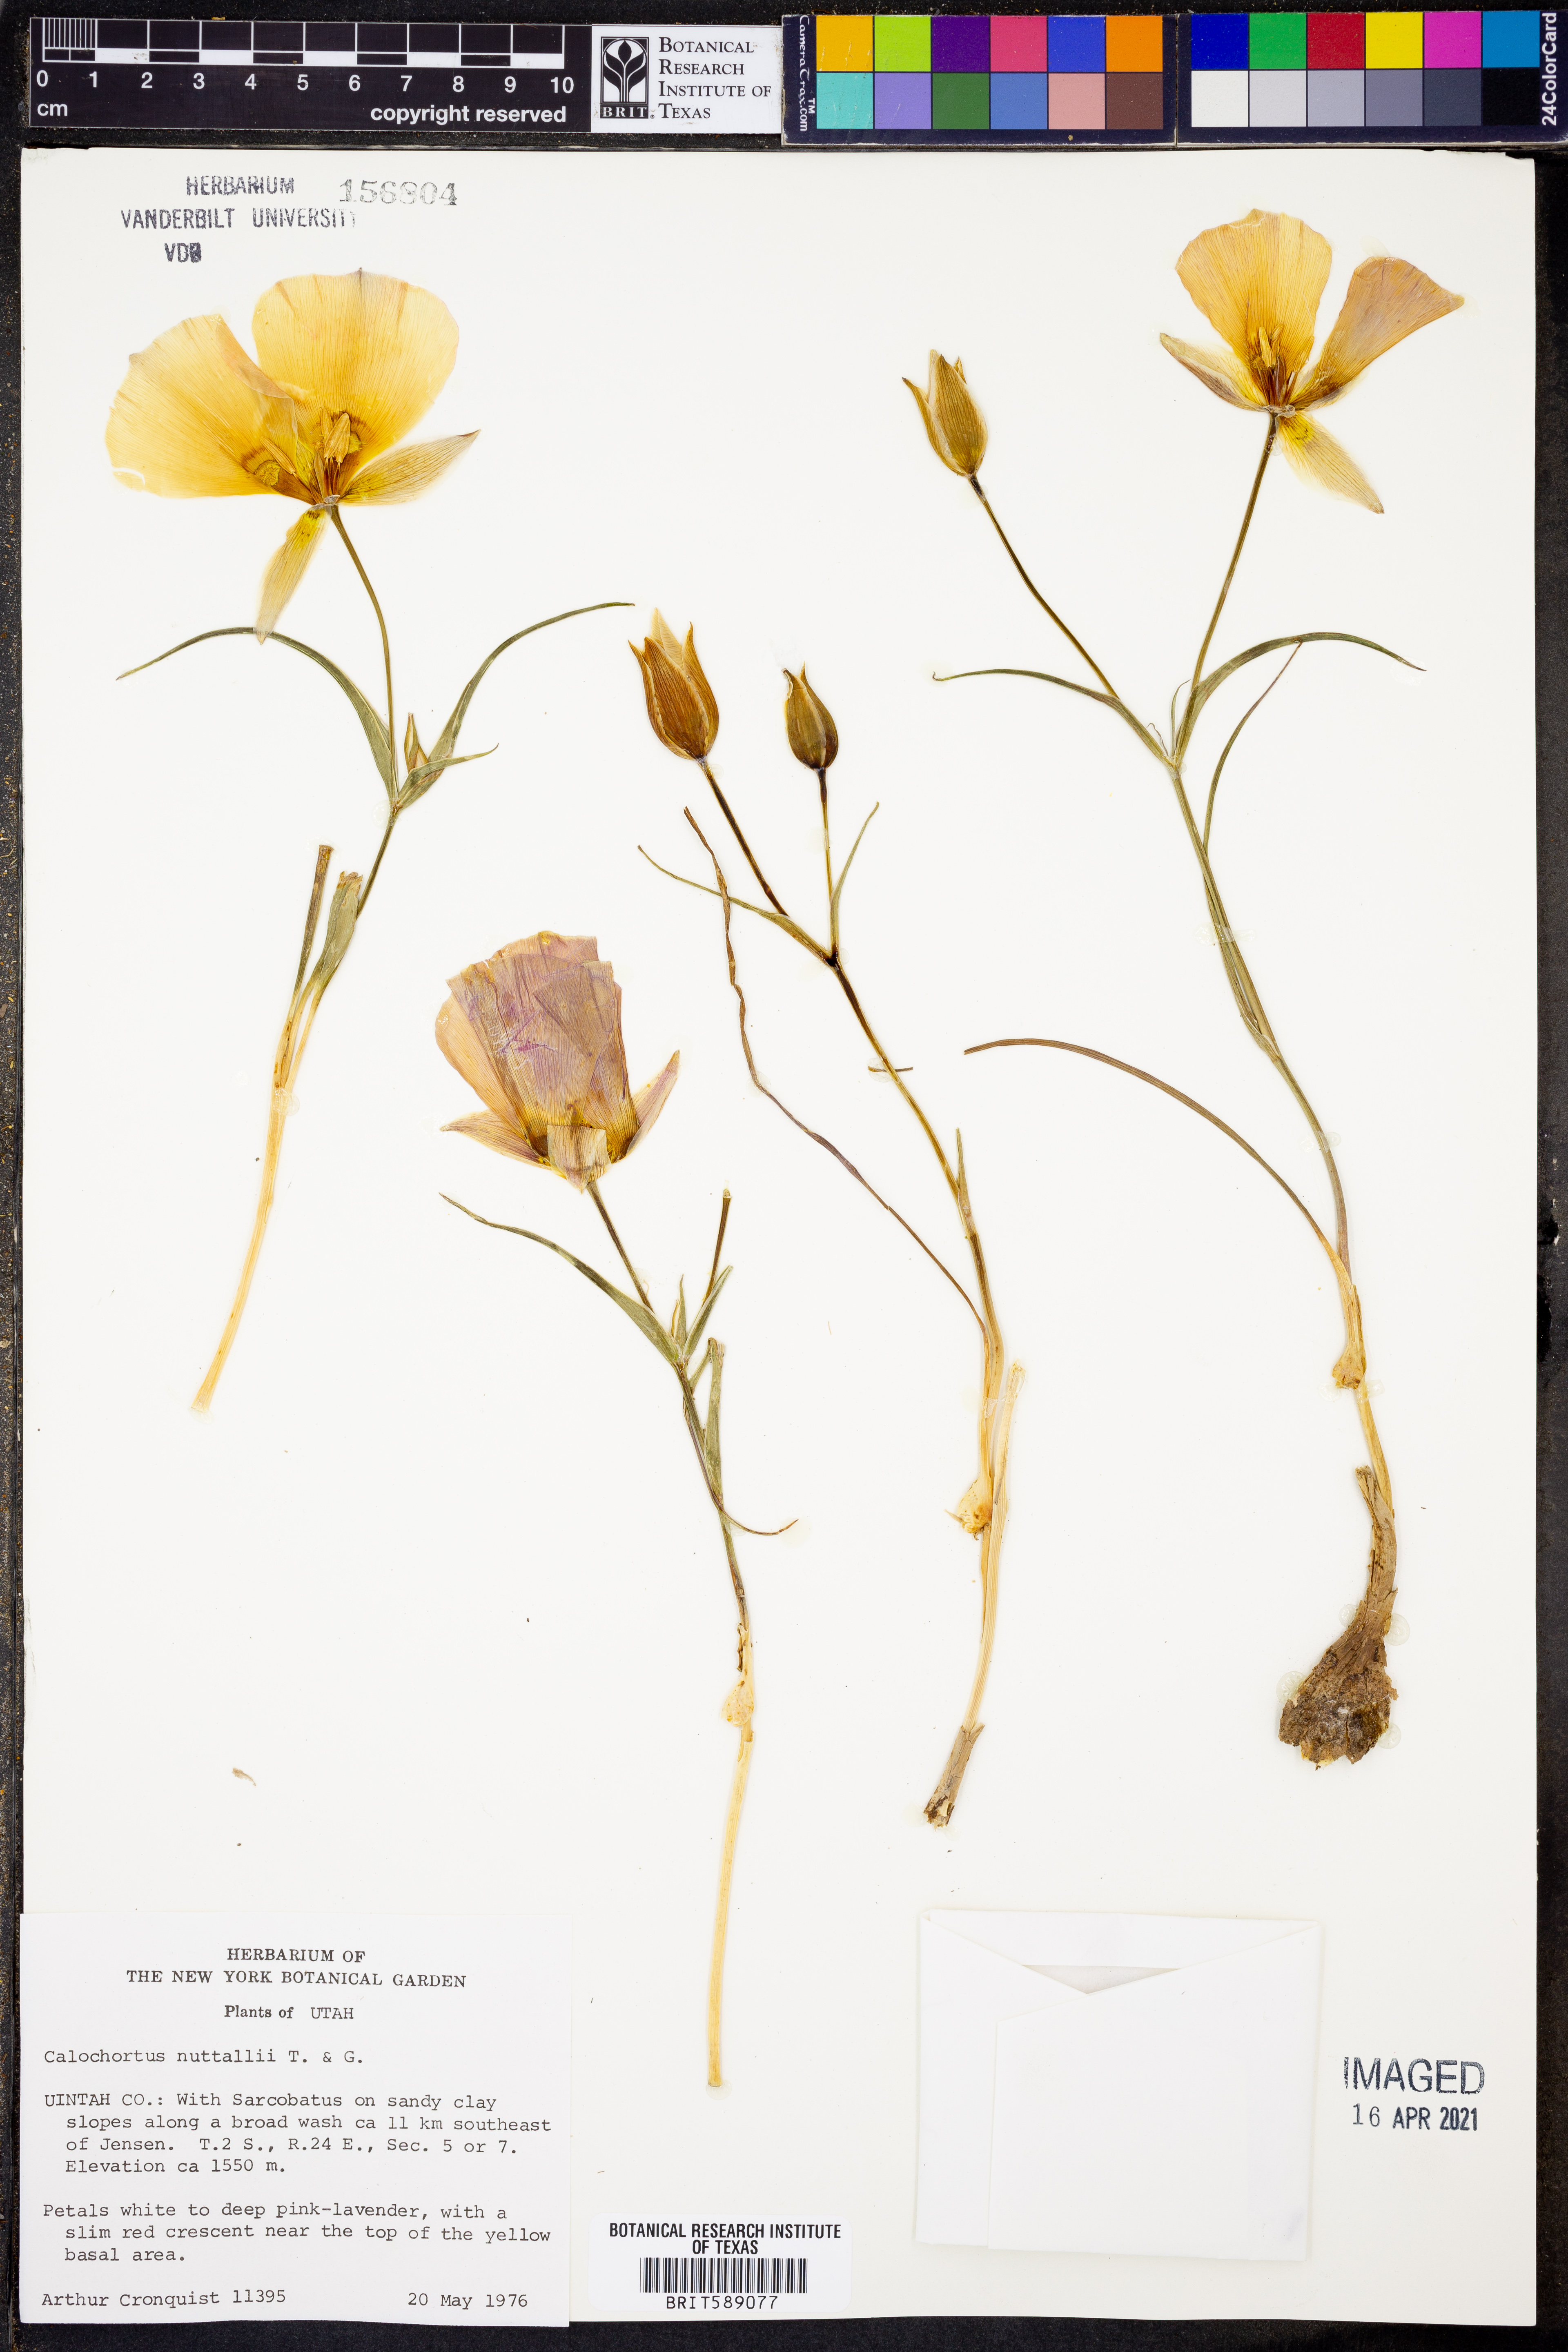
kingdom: Plantae
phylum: Tracheophyta
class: Liliopsida
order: Liliales
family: Liliaceae
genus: Calochortus
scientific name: Calochortus nuttallii
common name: Sego-lily
